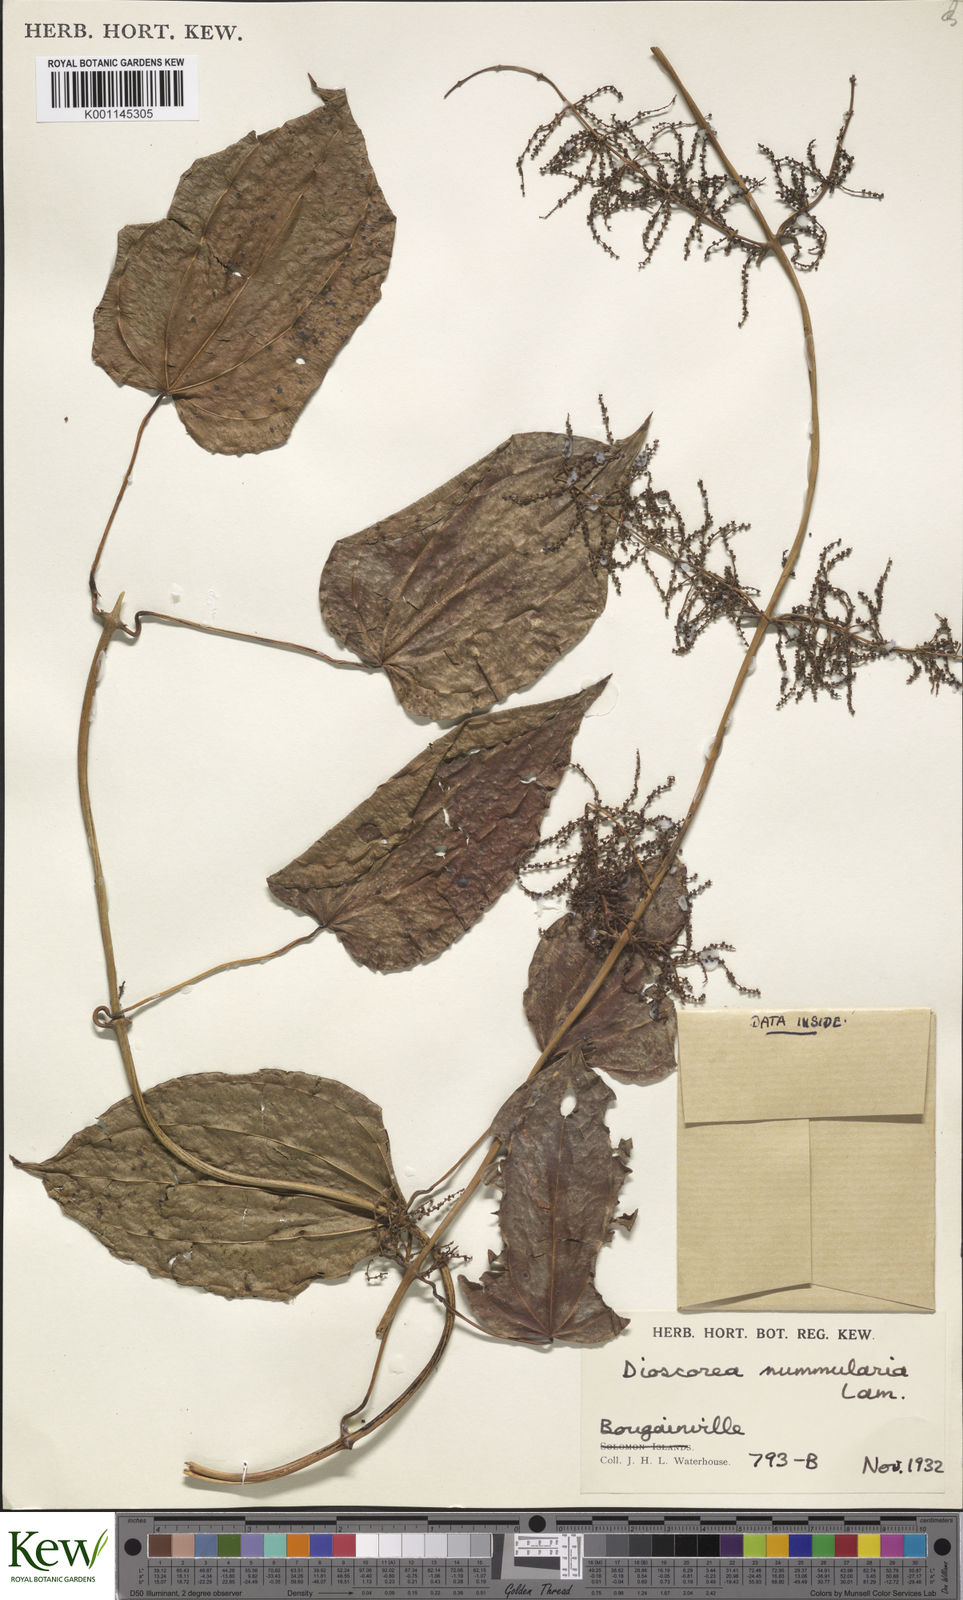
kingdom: Plantae
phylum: Tracheophyta
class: Liliopsida
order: Dioscoreales
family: Dioscoreaceae
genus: Dioscorea
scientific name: Dioscorea nummularia
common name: Pacific yam
